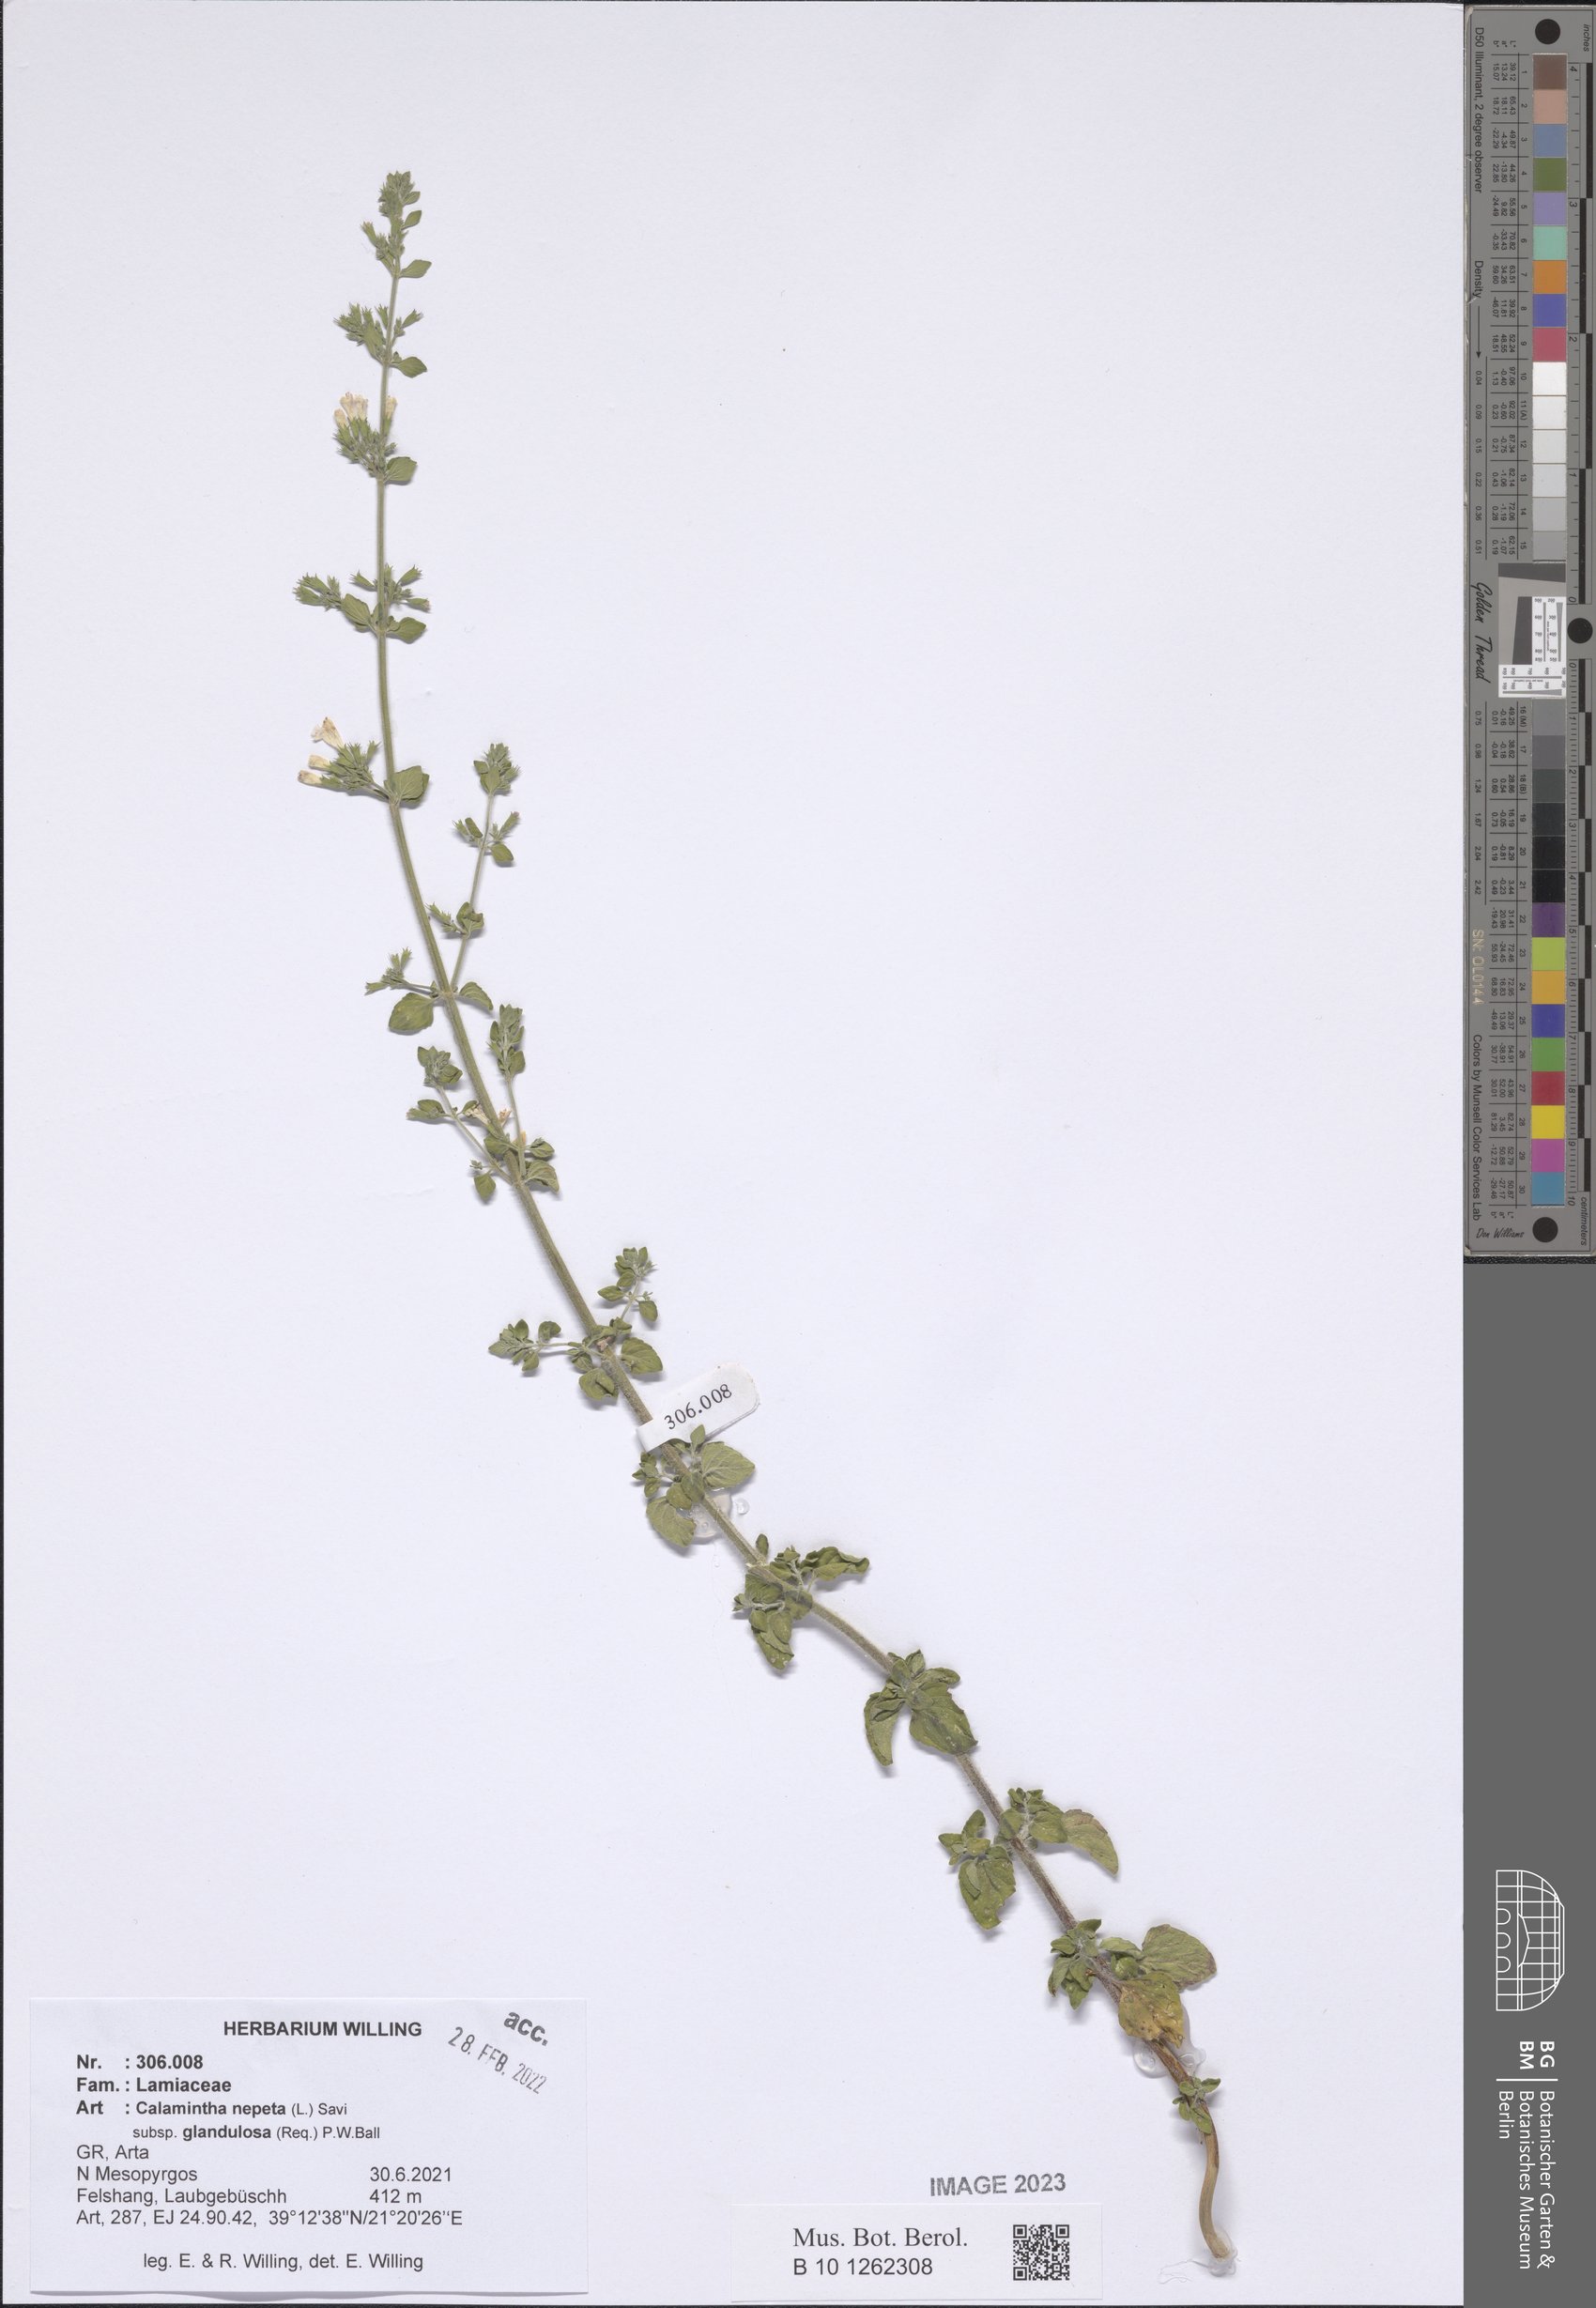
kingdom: Plantae
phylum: Tracheophyta
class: Magnoliopsida
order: Lamiales
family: Lamiaceae
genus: Clinopodium
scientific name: Clinopodium nepeta
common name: Lesser calamint
